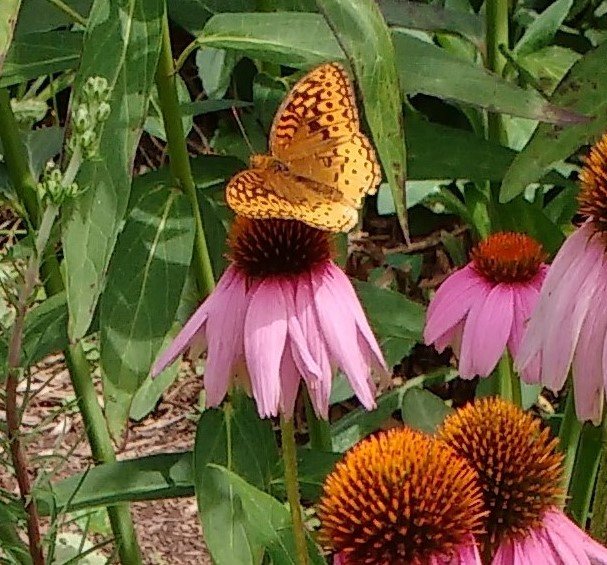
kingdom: Animalia
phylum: Arthropoda
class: Insecta
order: Lepidoptera
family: Nymphalidae
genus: Speyeria
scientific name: Speyeria cybele
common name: Great Spangled Fritillary
